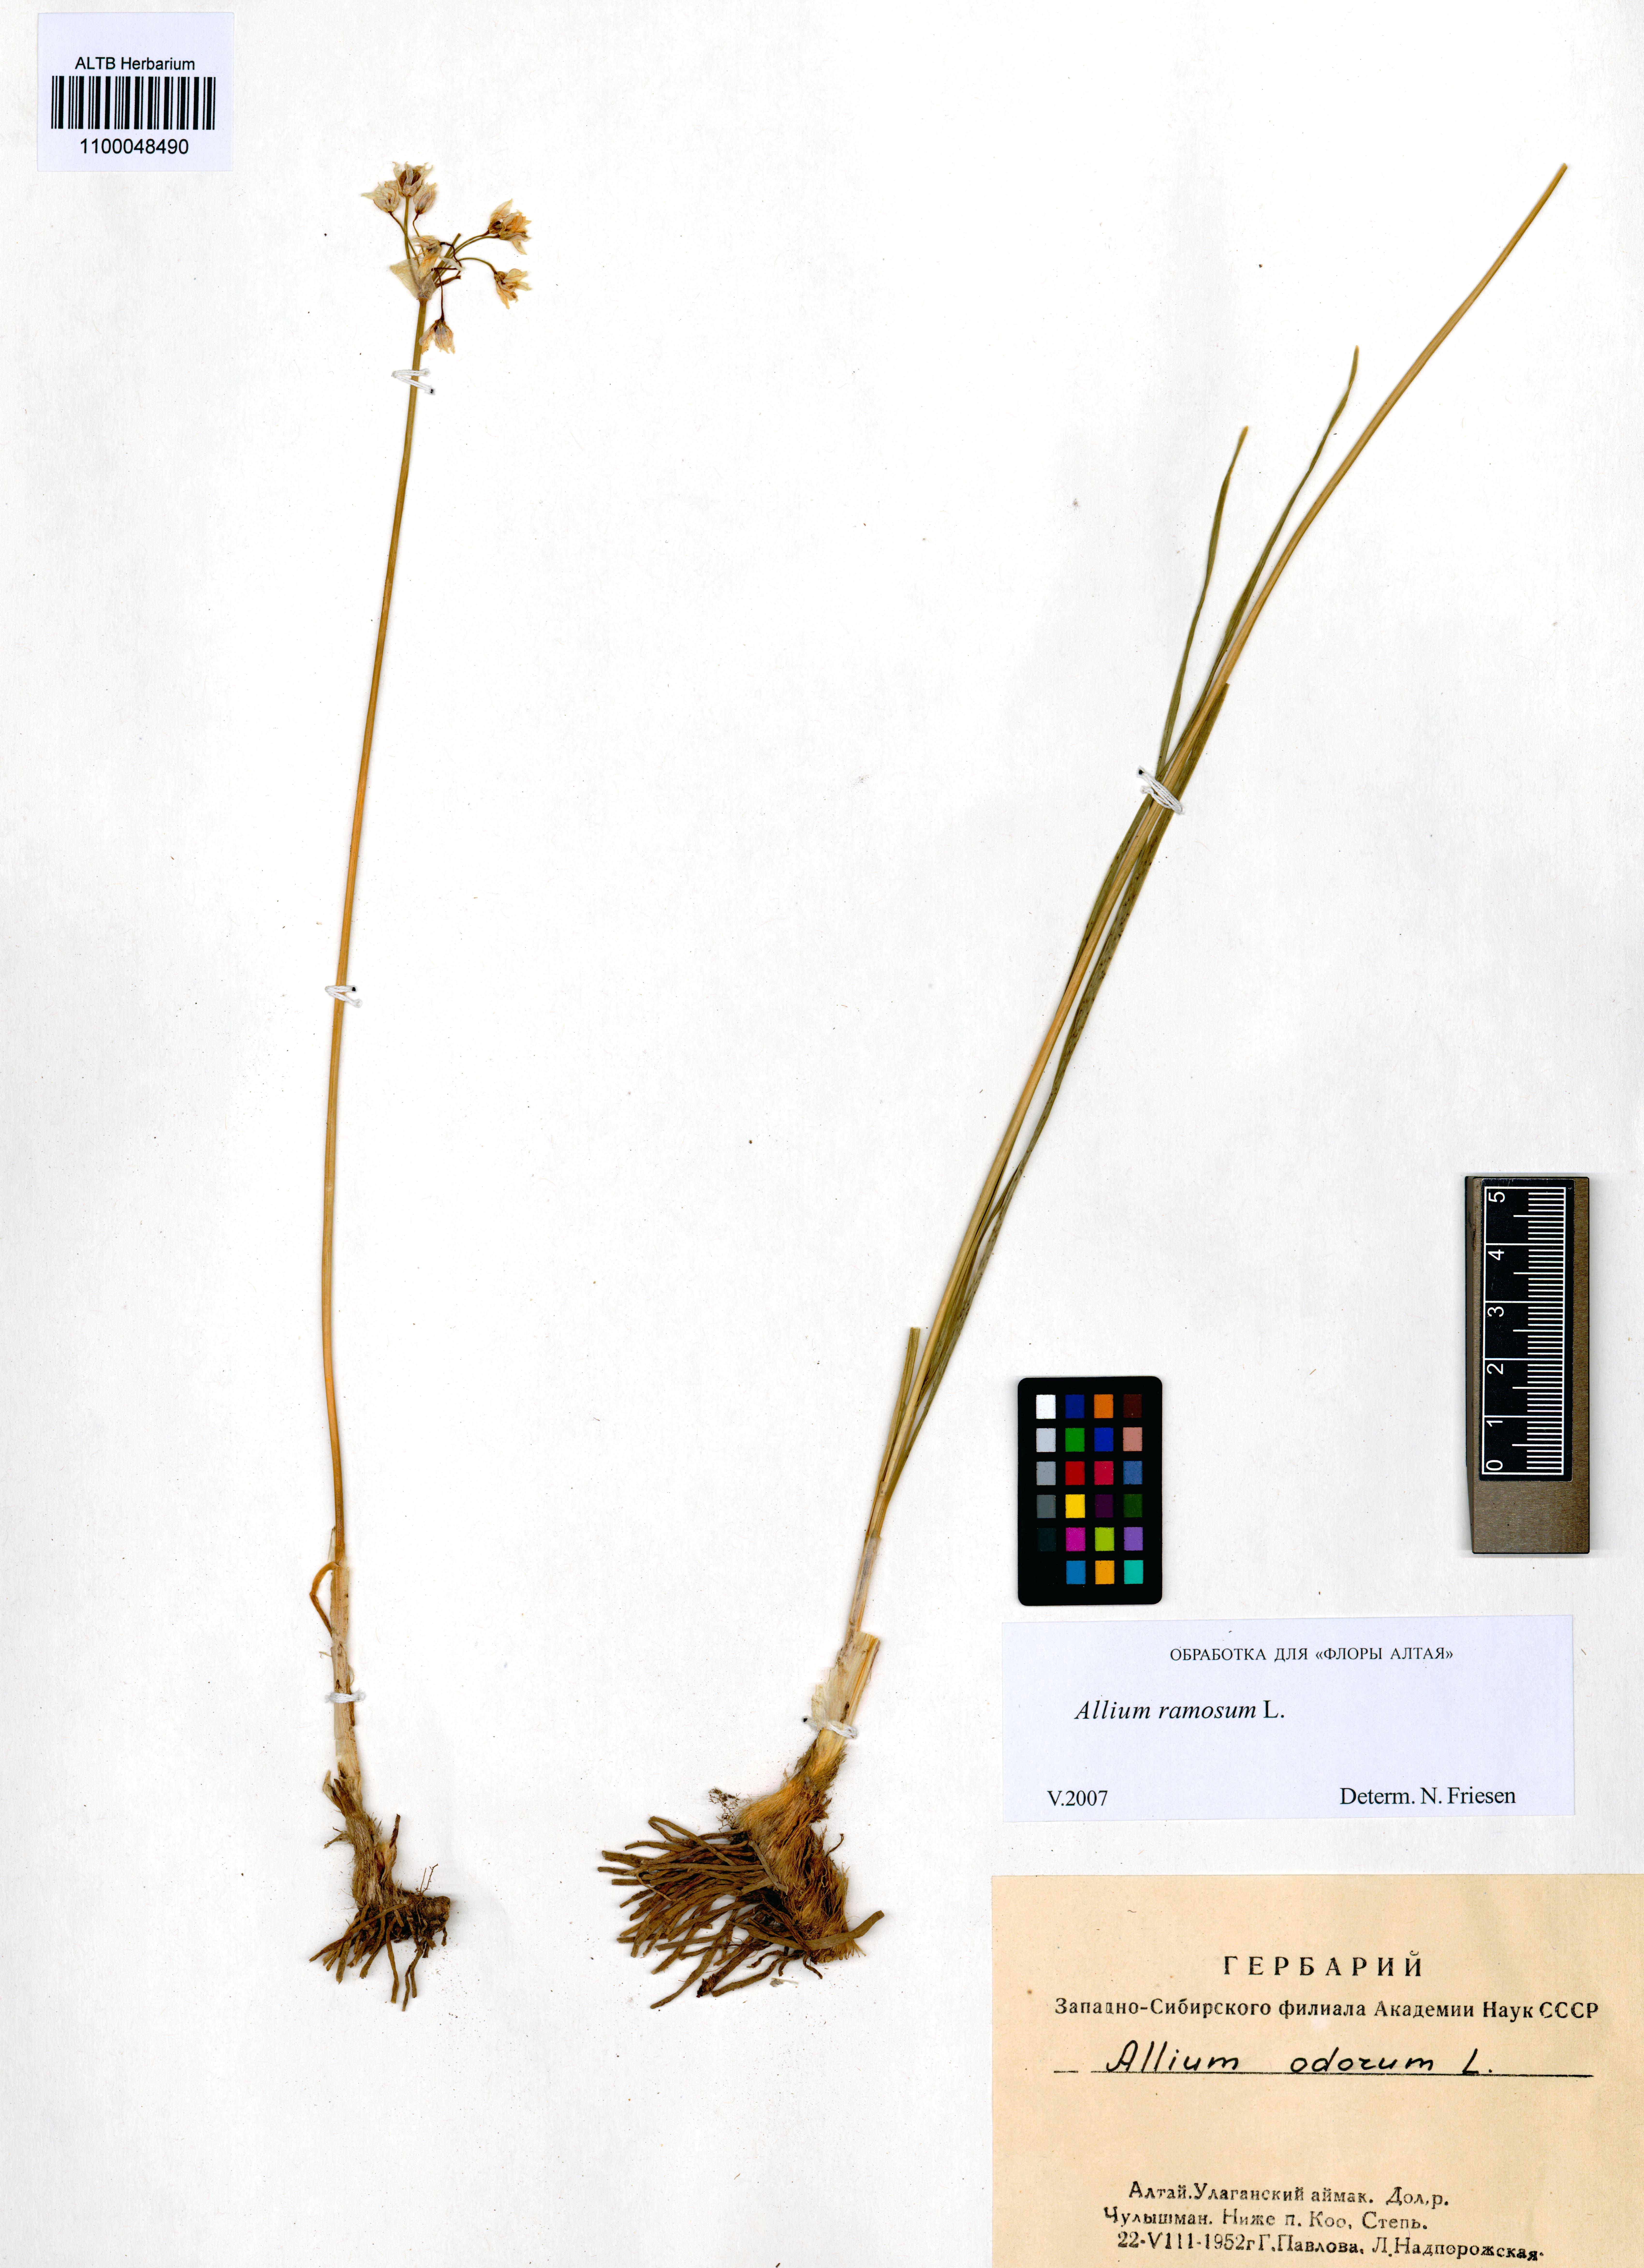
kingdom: Plantae
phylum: Tracheophyta
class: Liliopsida
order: Asparagales
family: Amaryllidaceae
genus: Allium
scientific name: Allium ramosum
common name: Fragrant garlic
